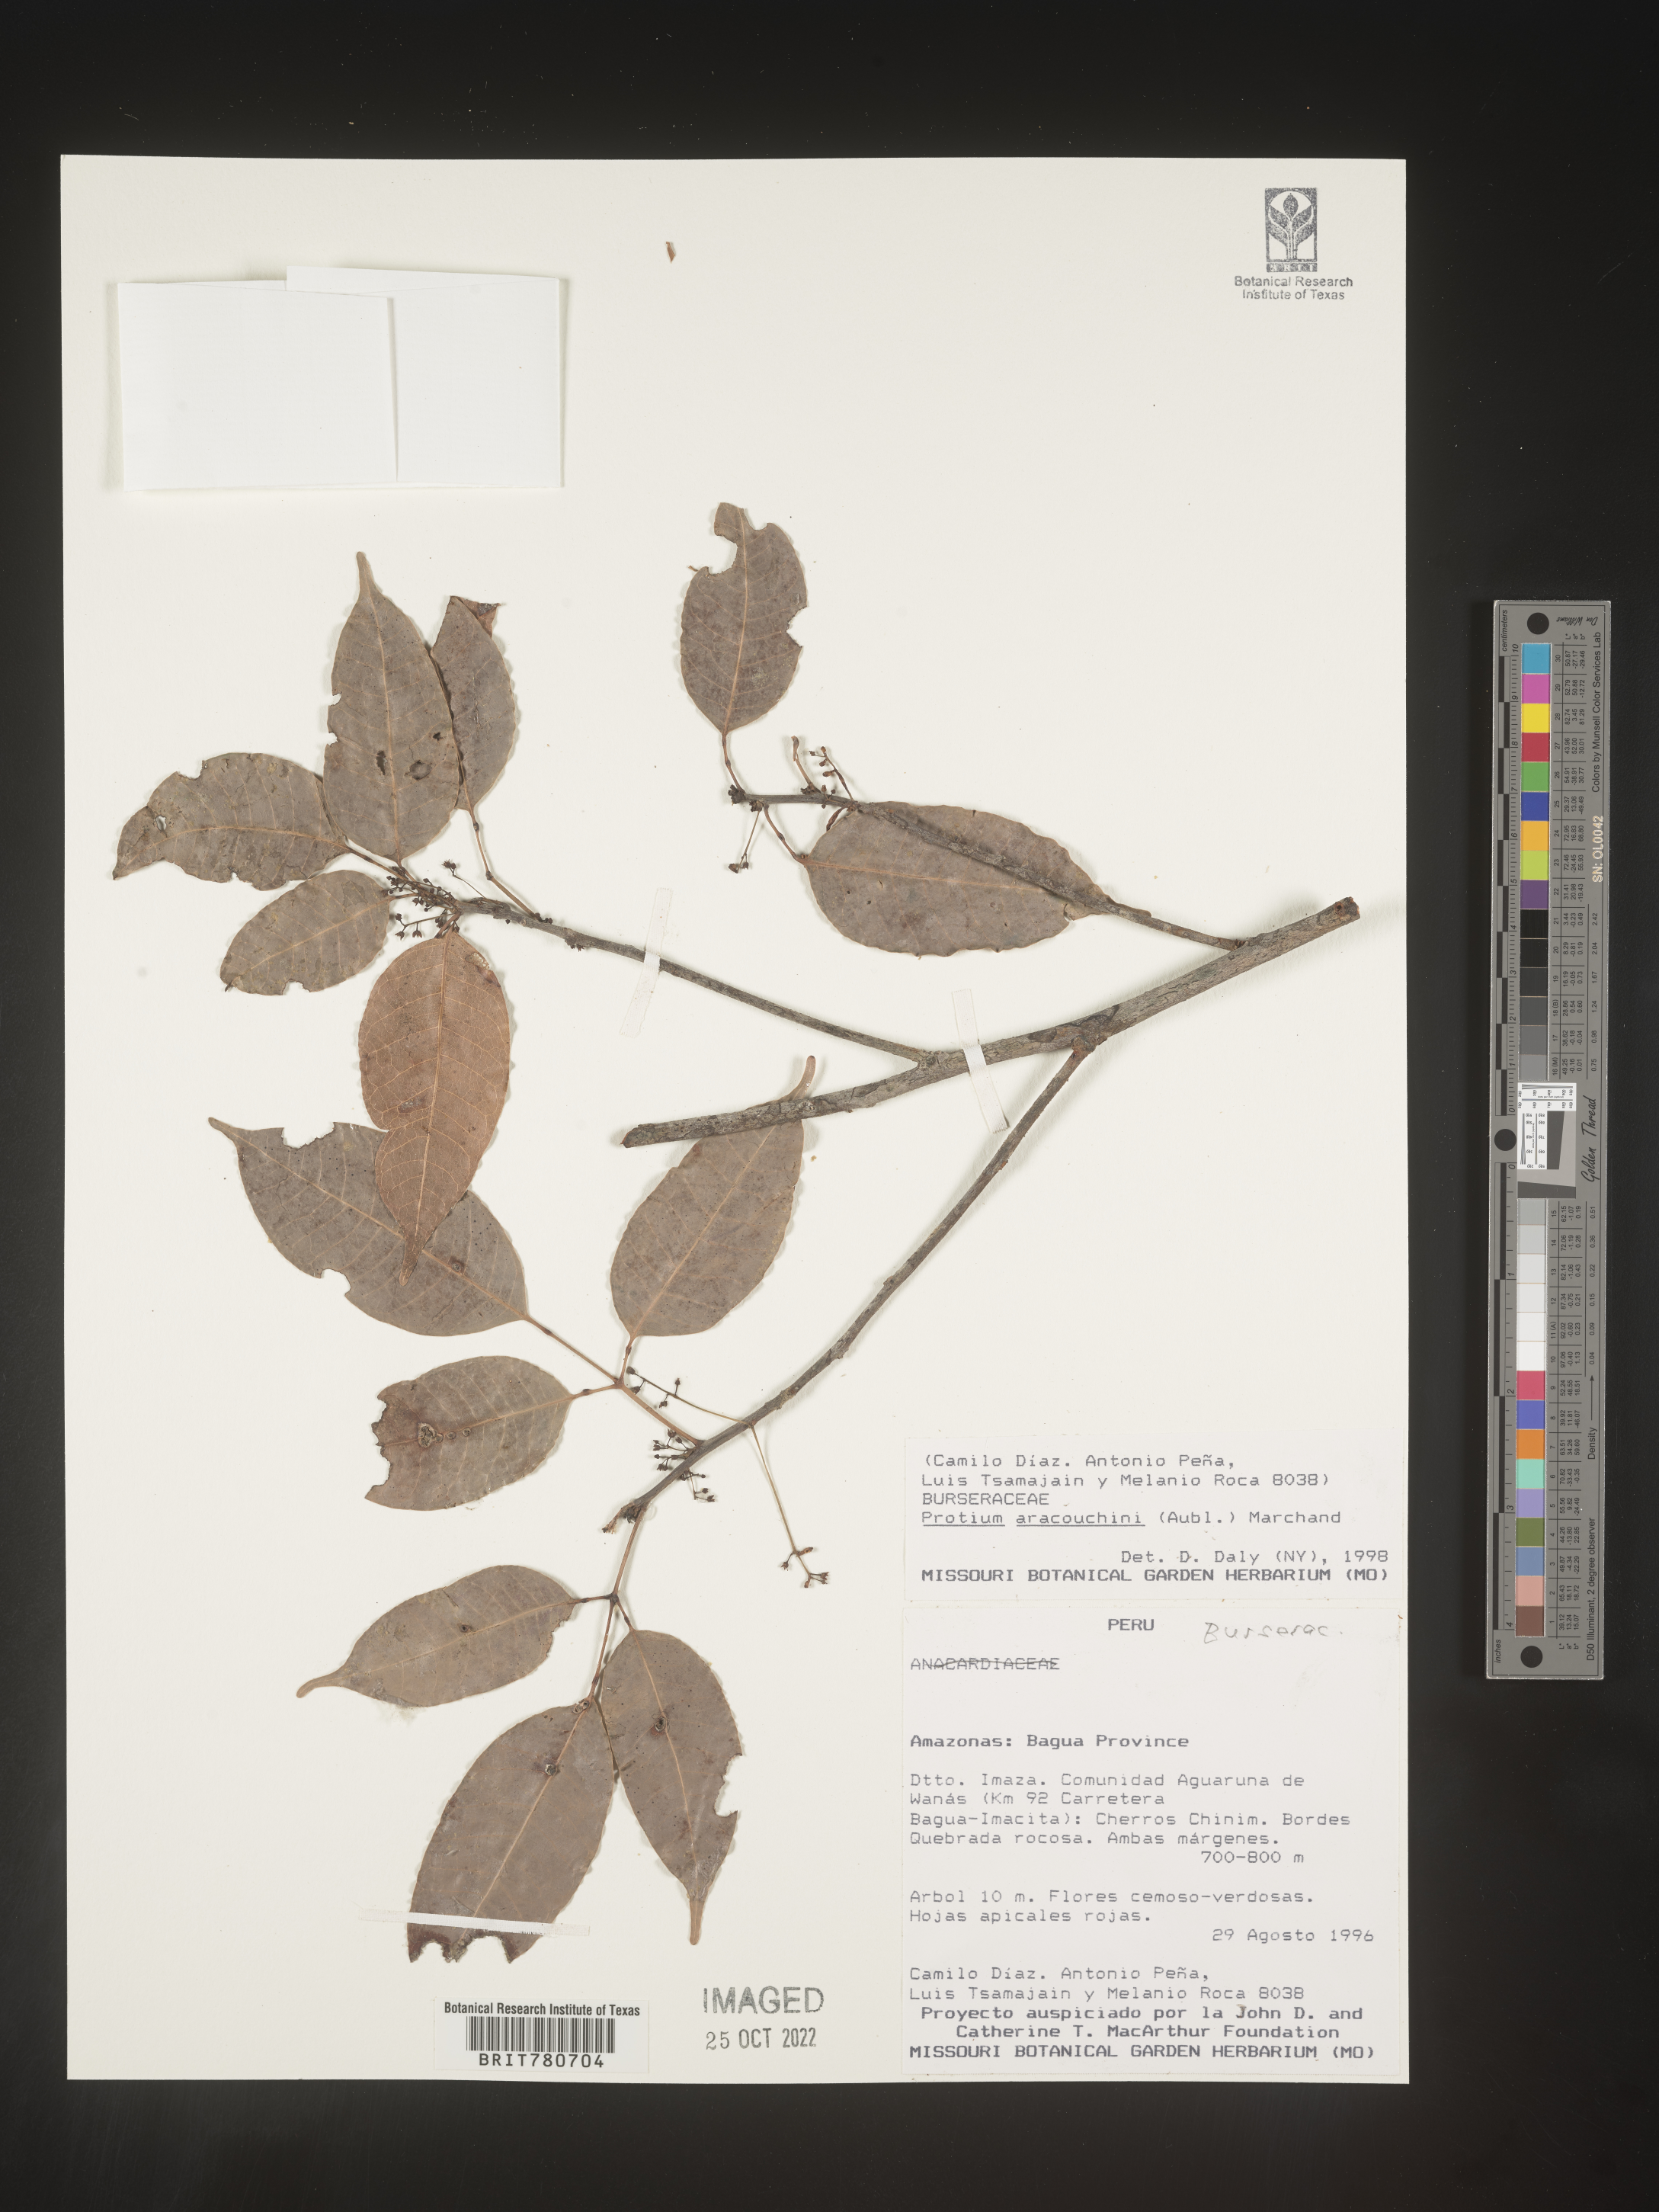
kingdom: Plantae
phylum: Tracheophyta
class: Magnoliopsida
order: Sapindales
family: Burseraceae
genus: Protium
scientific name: Protium
